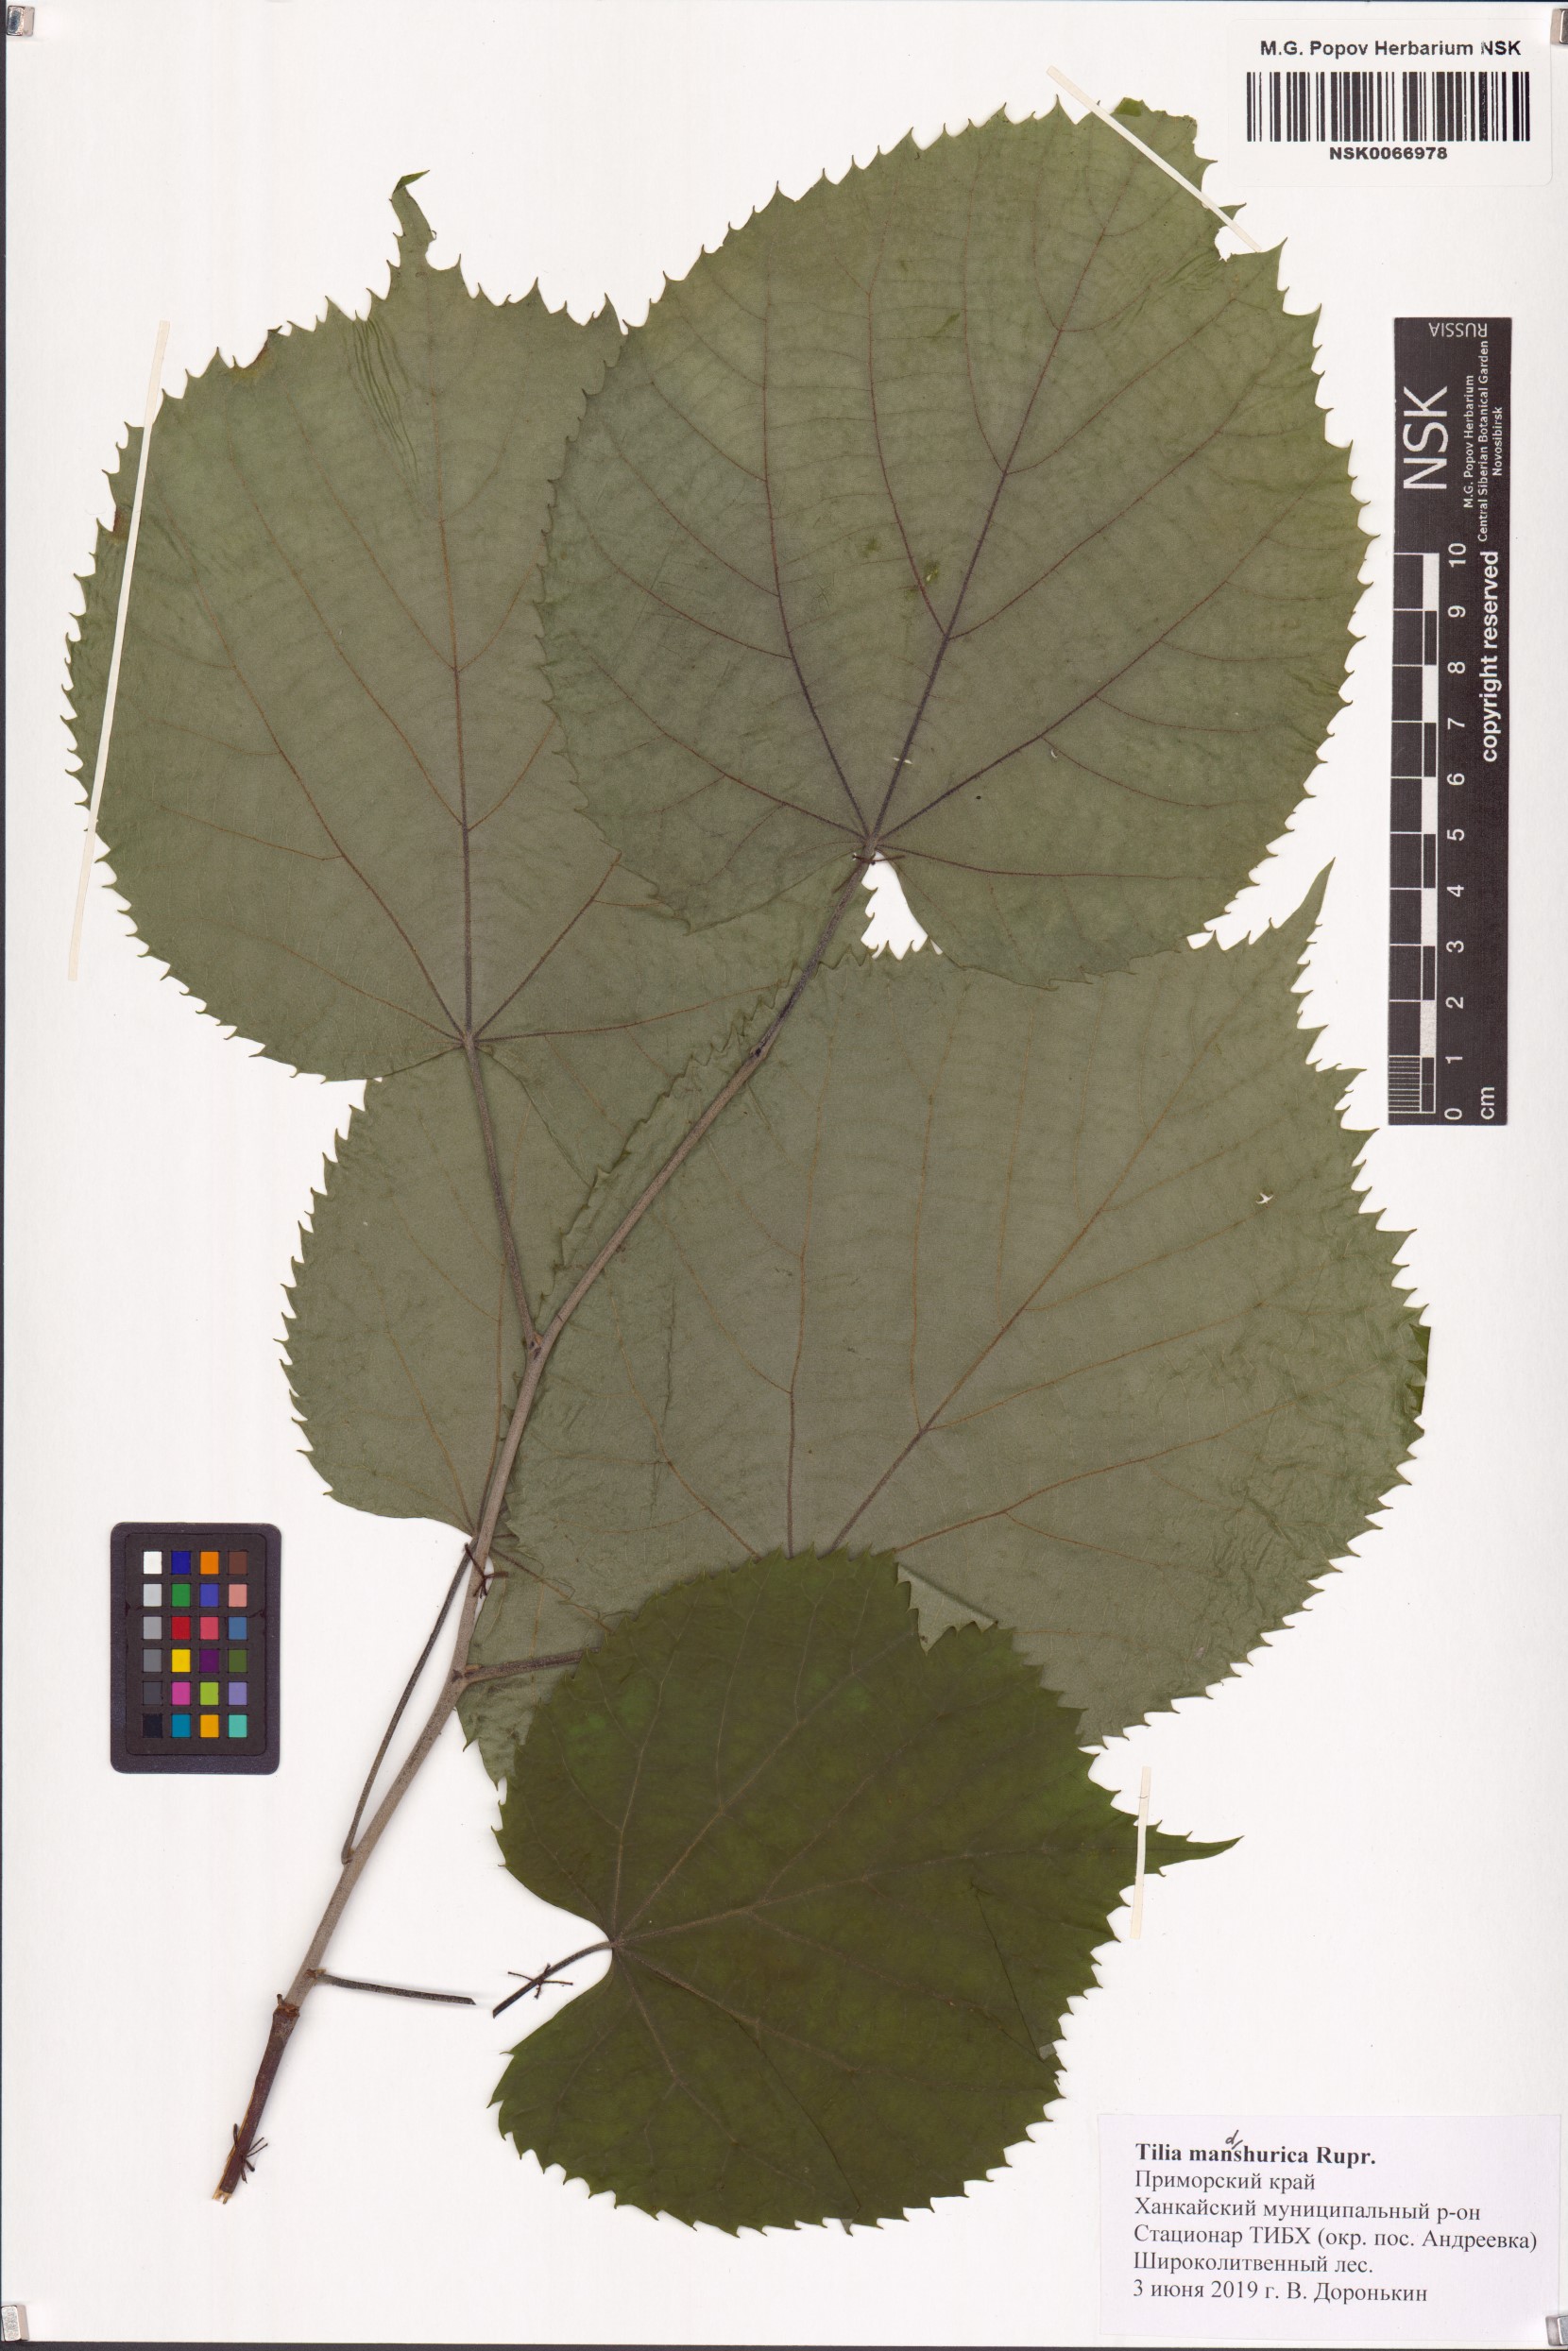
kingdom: Plantae
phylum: Tracheophyta
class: Magnoliopsida
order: Malvales
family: Malvaceae
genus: Tilia
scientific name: Tilia mandshurica
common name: Manchurian linden
